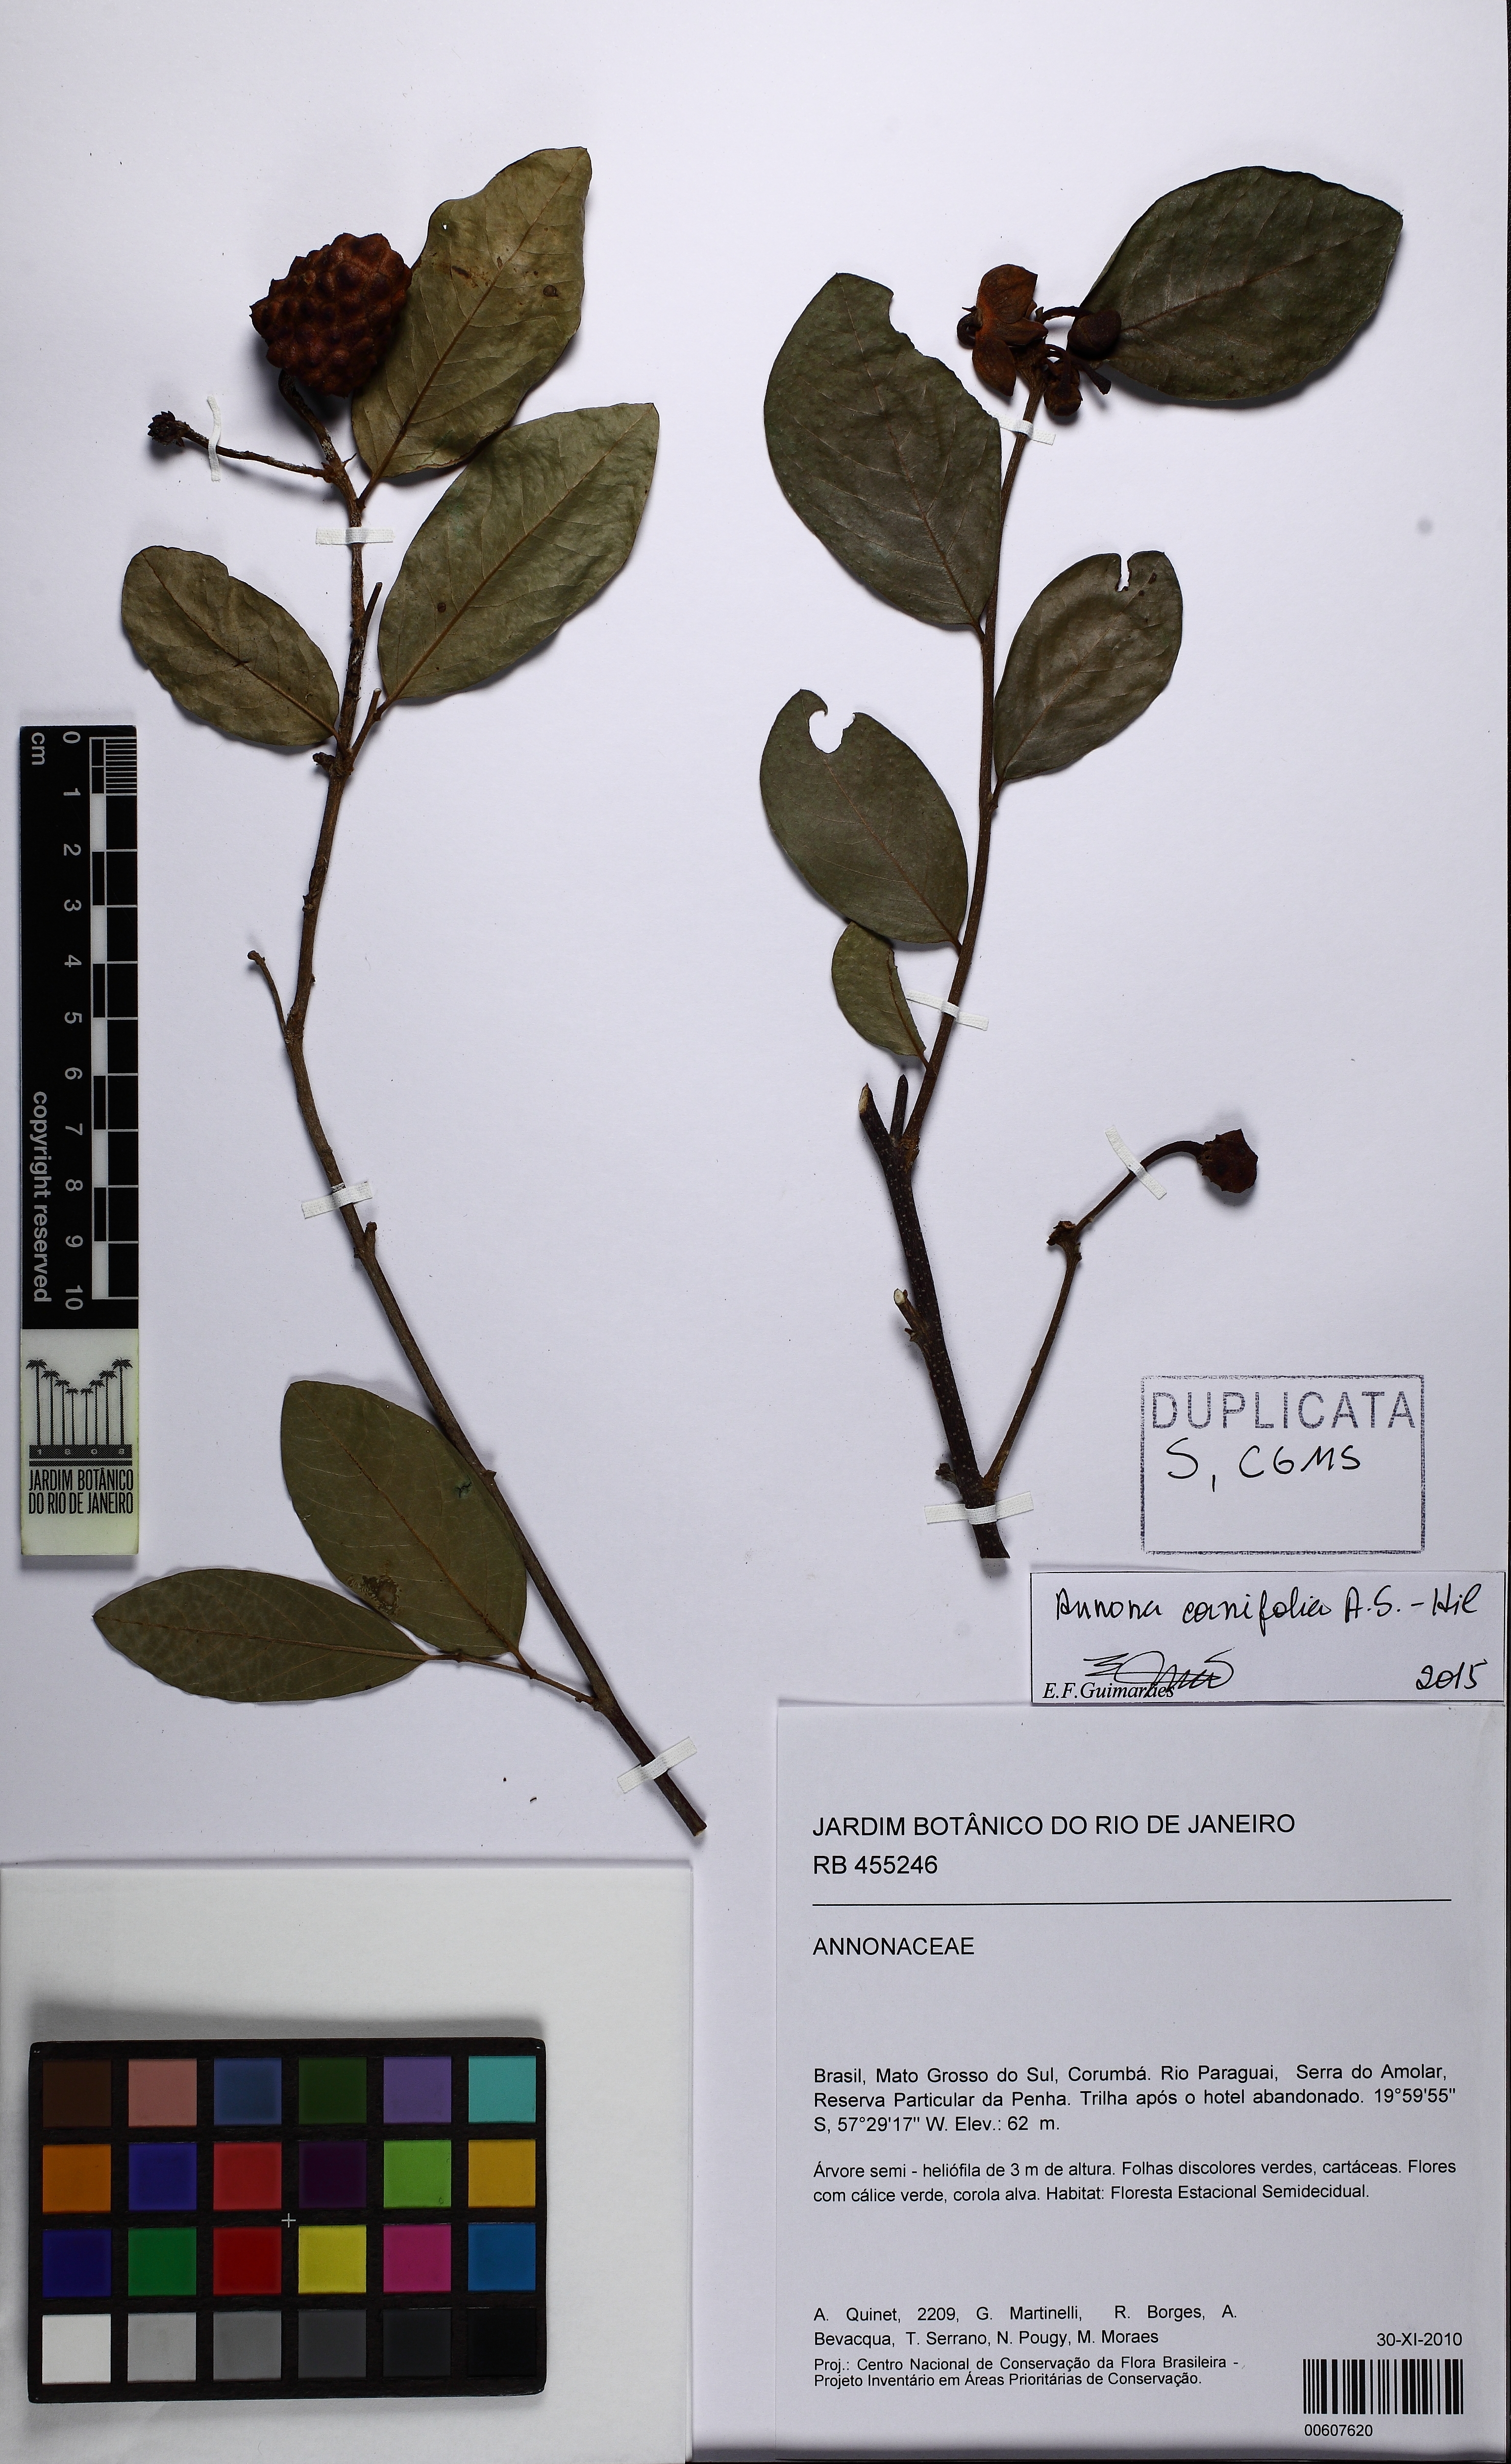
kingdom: Plantae
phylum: Tracheophyta
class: Magnoliopsida
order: Magnoliales
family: Annonaceae
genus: Annona
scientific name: Annona cornifolia
